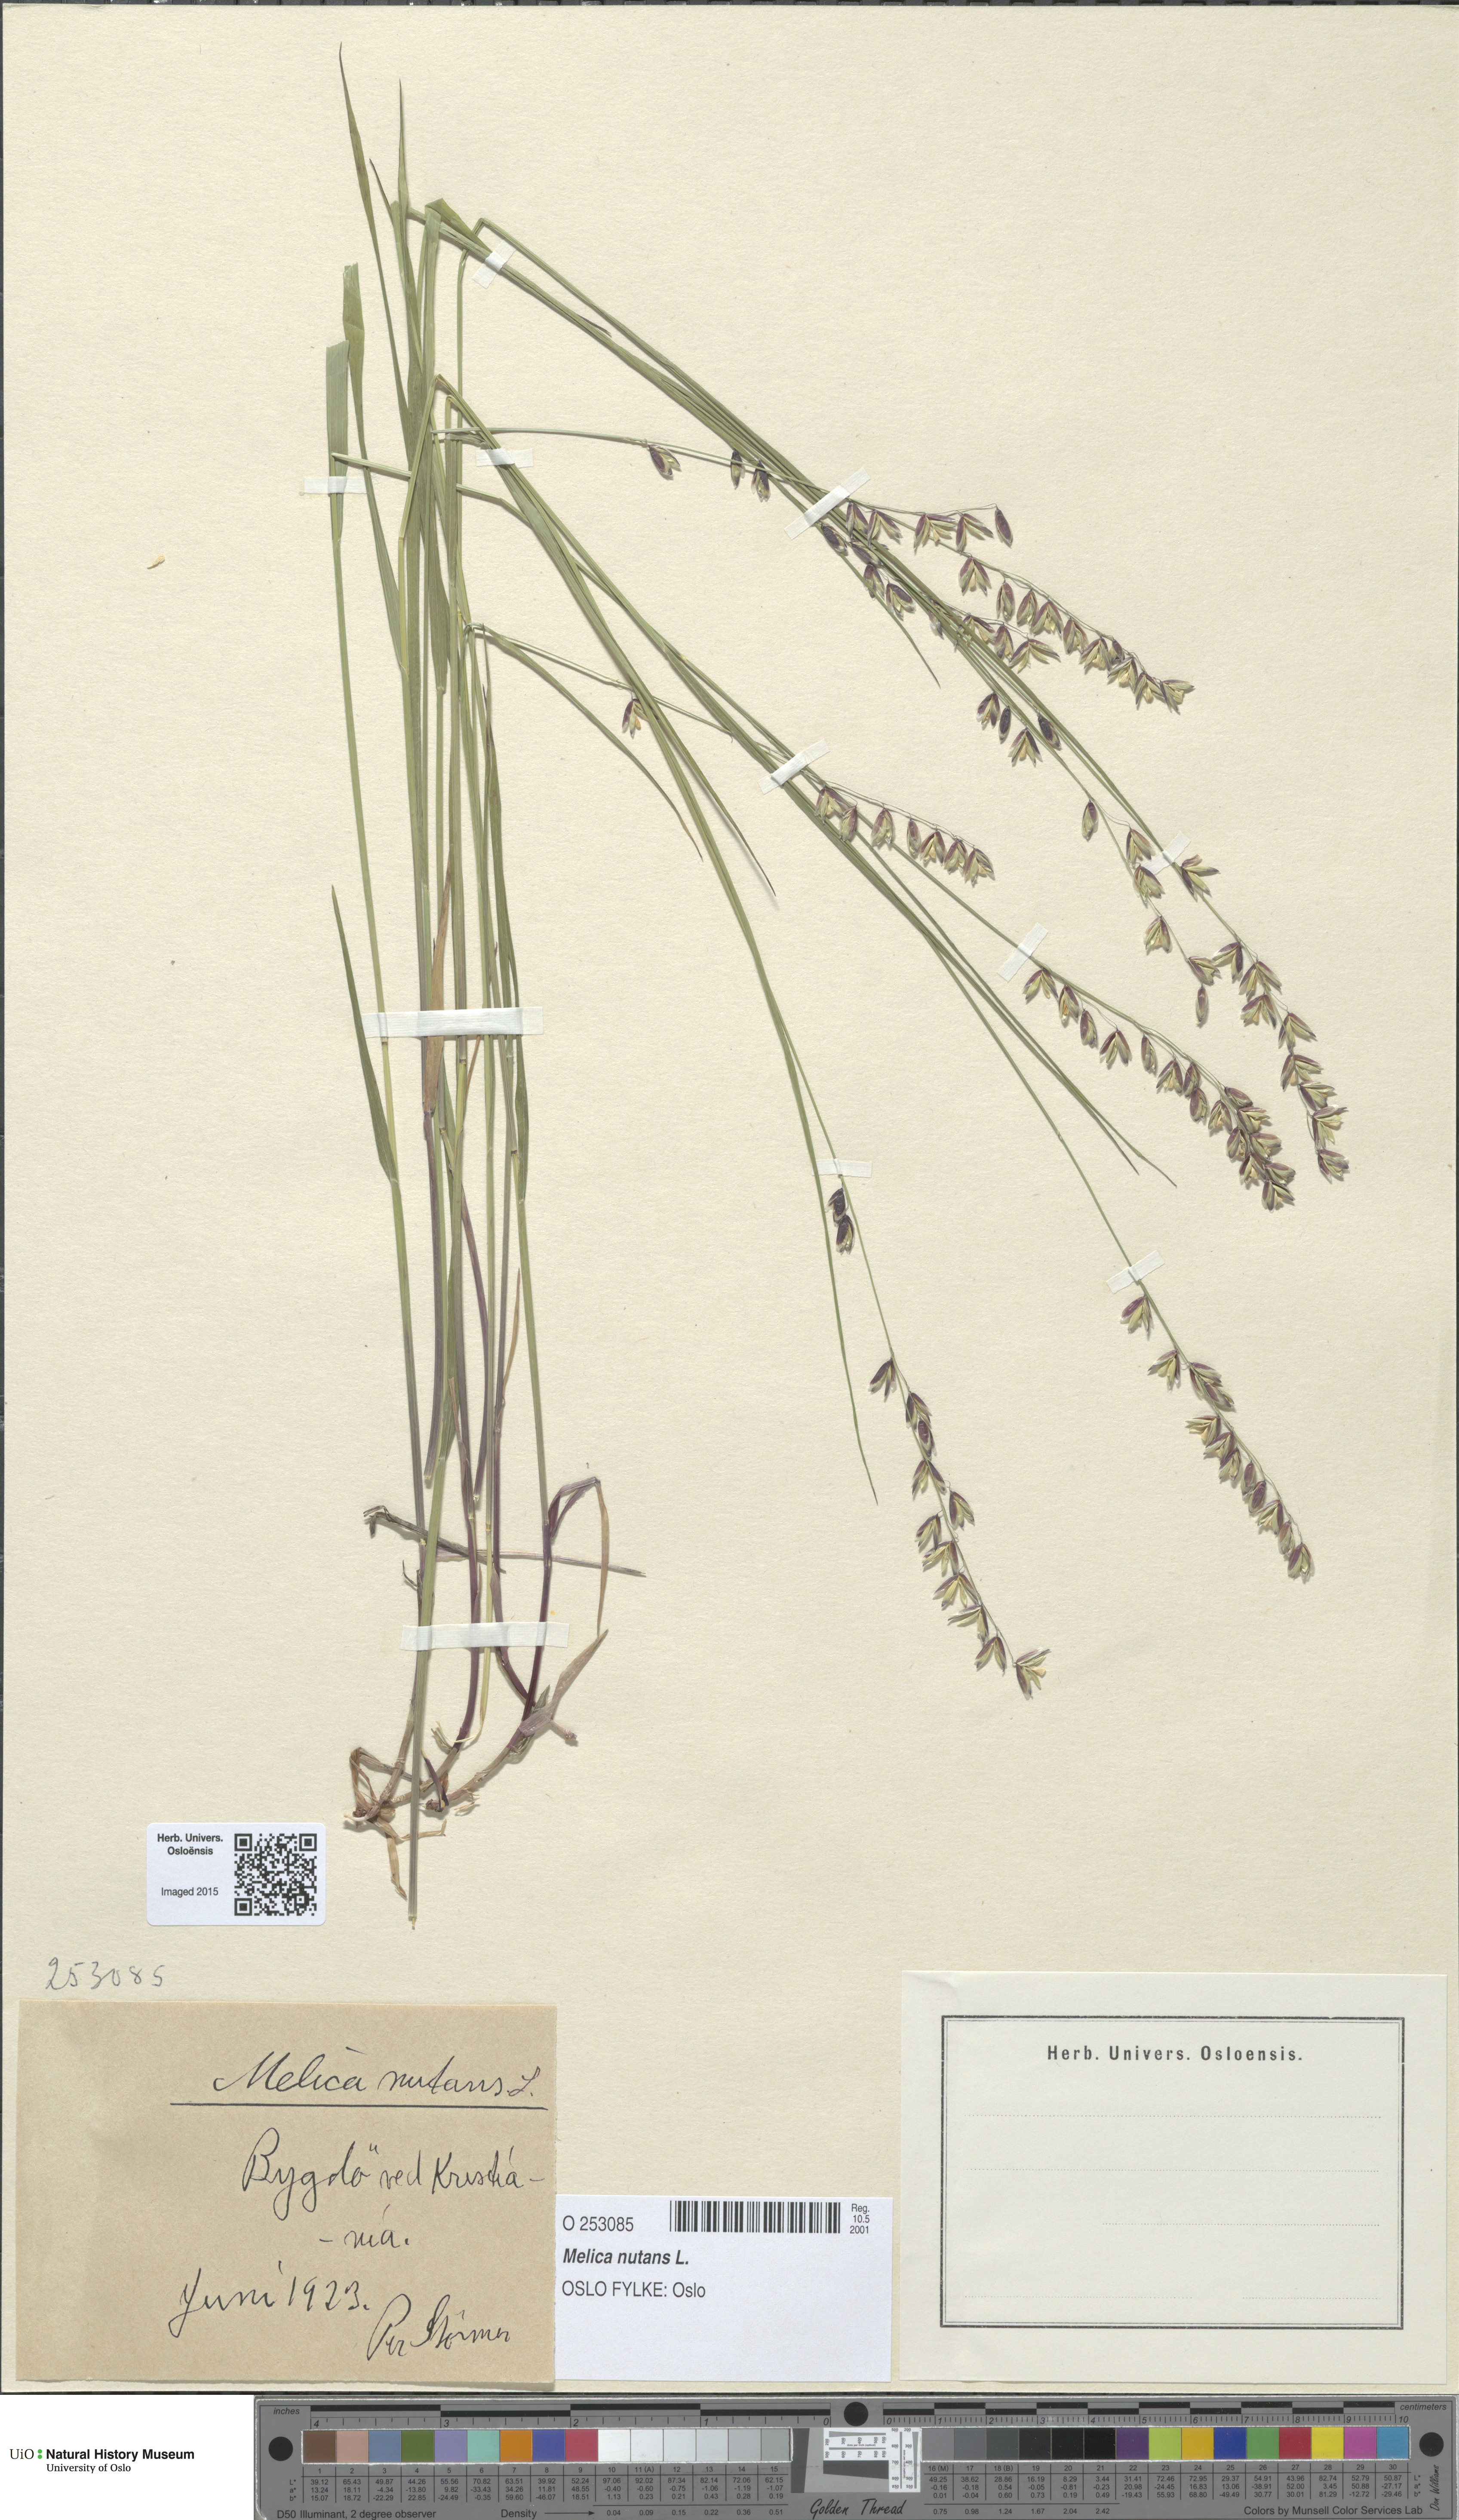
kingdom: Plantae
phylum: Tracheophyta
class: Liliopsida
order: Poales
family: Poaceae
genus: Melica
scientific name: Melica nutans
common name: Mountain melick
